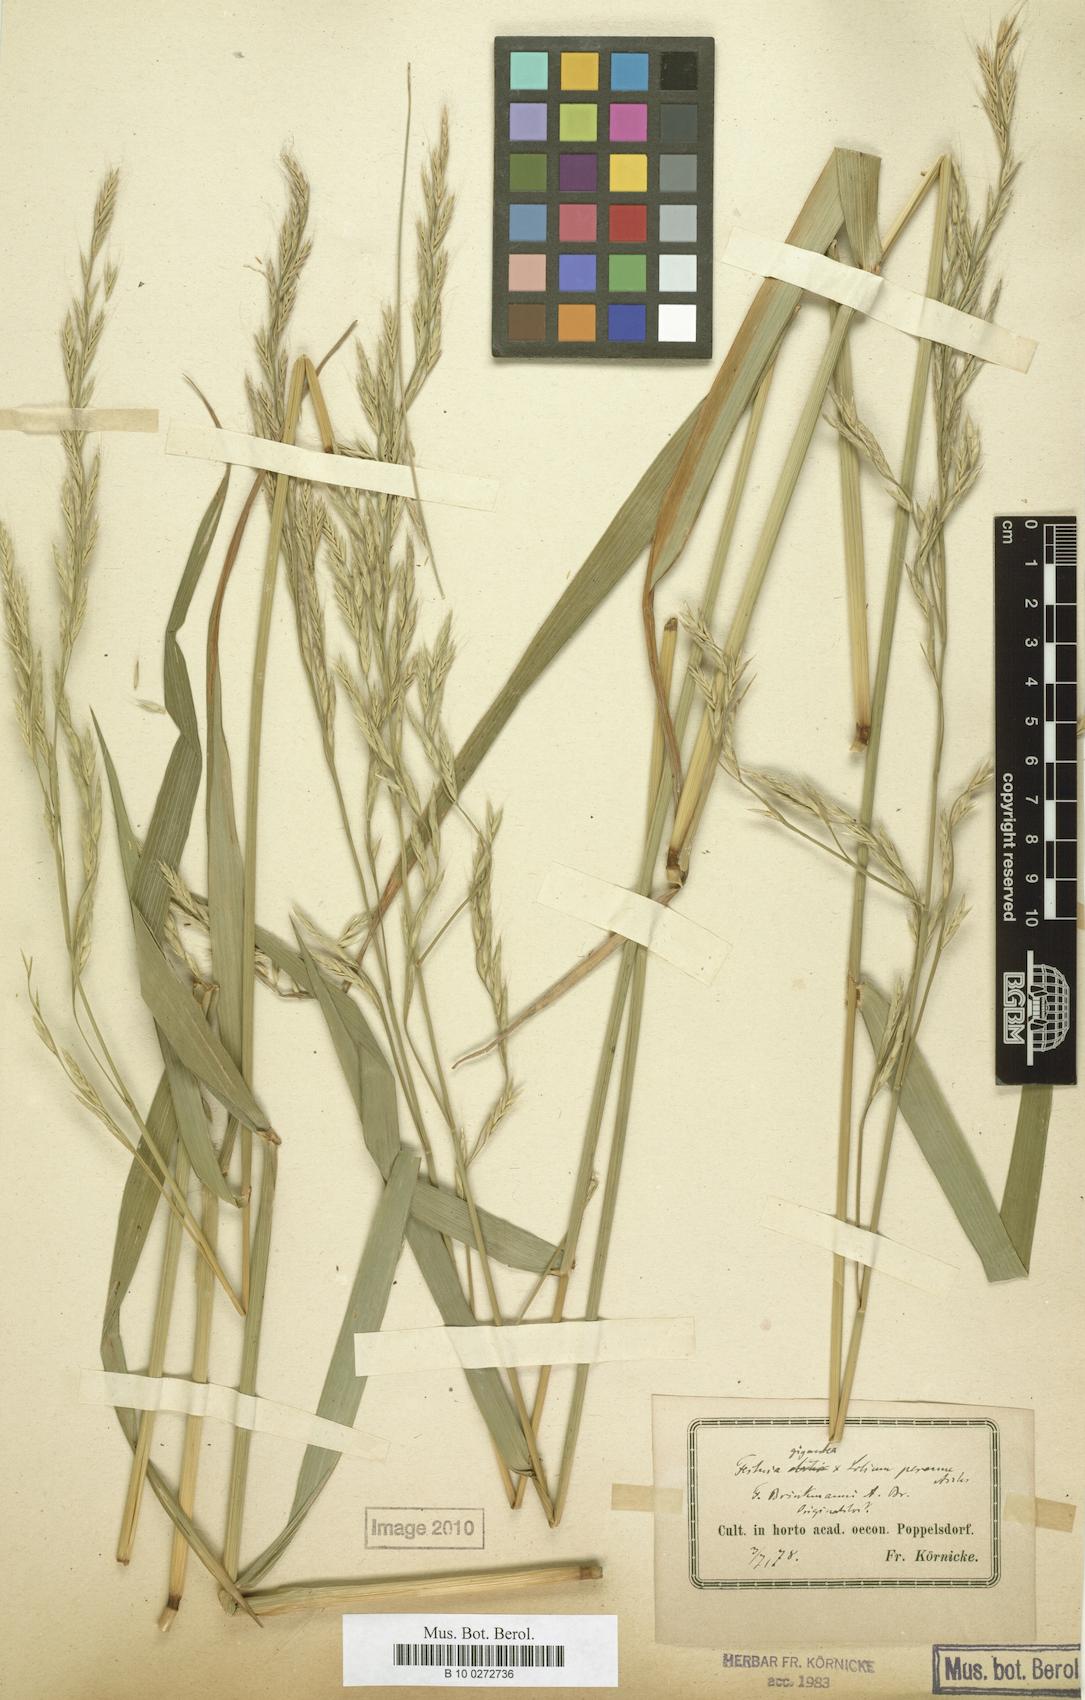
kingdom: Plantae
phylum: Tracheophyta
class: Liliopsida
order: Poales
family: Poaceae
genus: Lolium
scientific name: Lolium brinkmannii
